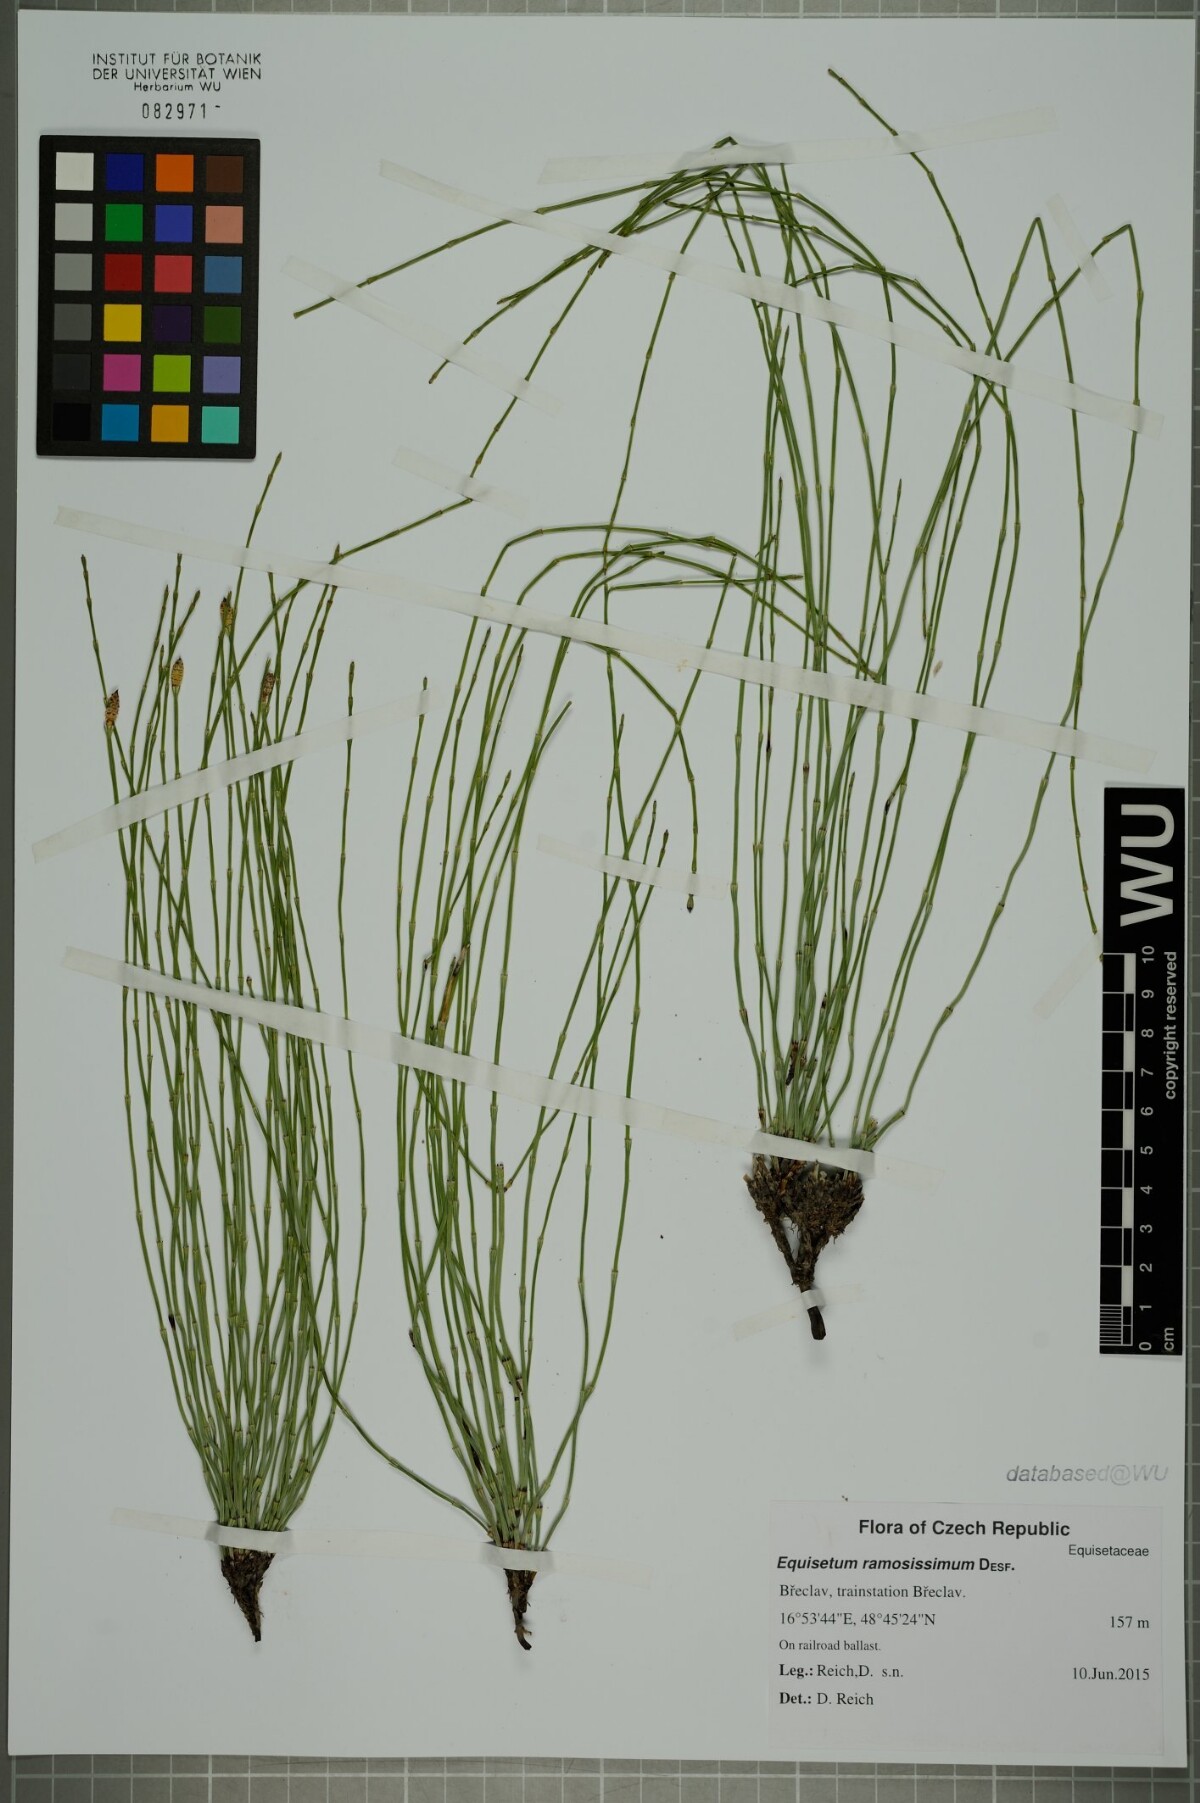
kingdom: Plantae
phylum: Tracheophyta
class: Polypodiopsida
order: Equisetales
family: Equisetaceae
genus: Equisetum
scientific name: Equisetum ramosissimum
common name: Branched horsetail
